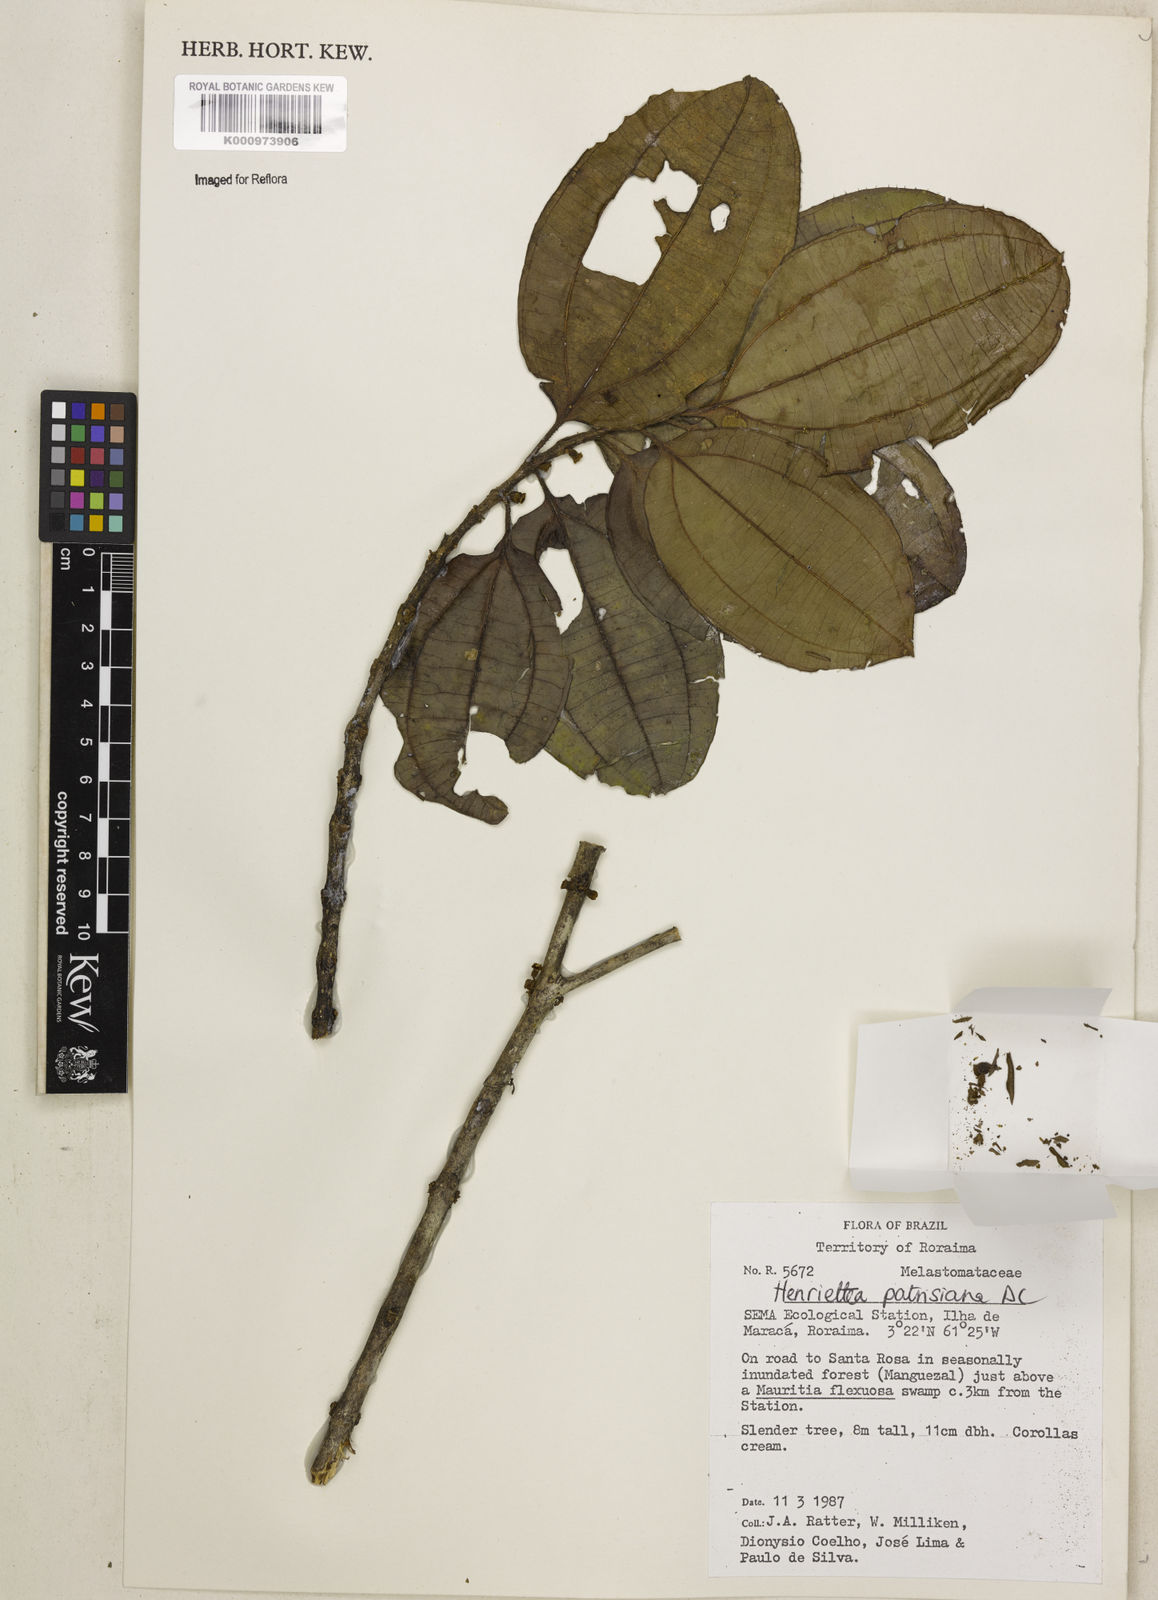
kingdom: Plantae
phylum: Tracheophyta
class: Magnoliopsida
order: Myrtales
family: Melastomataceae
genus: Henriettea
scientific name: Henriettea patrisiana
